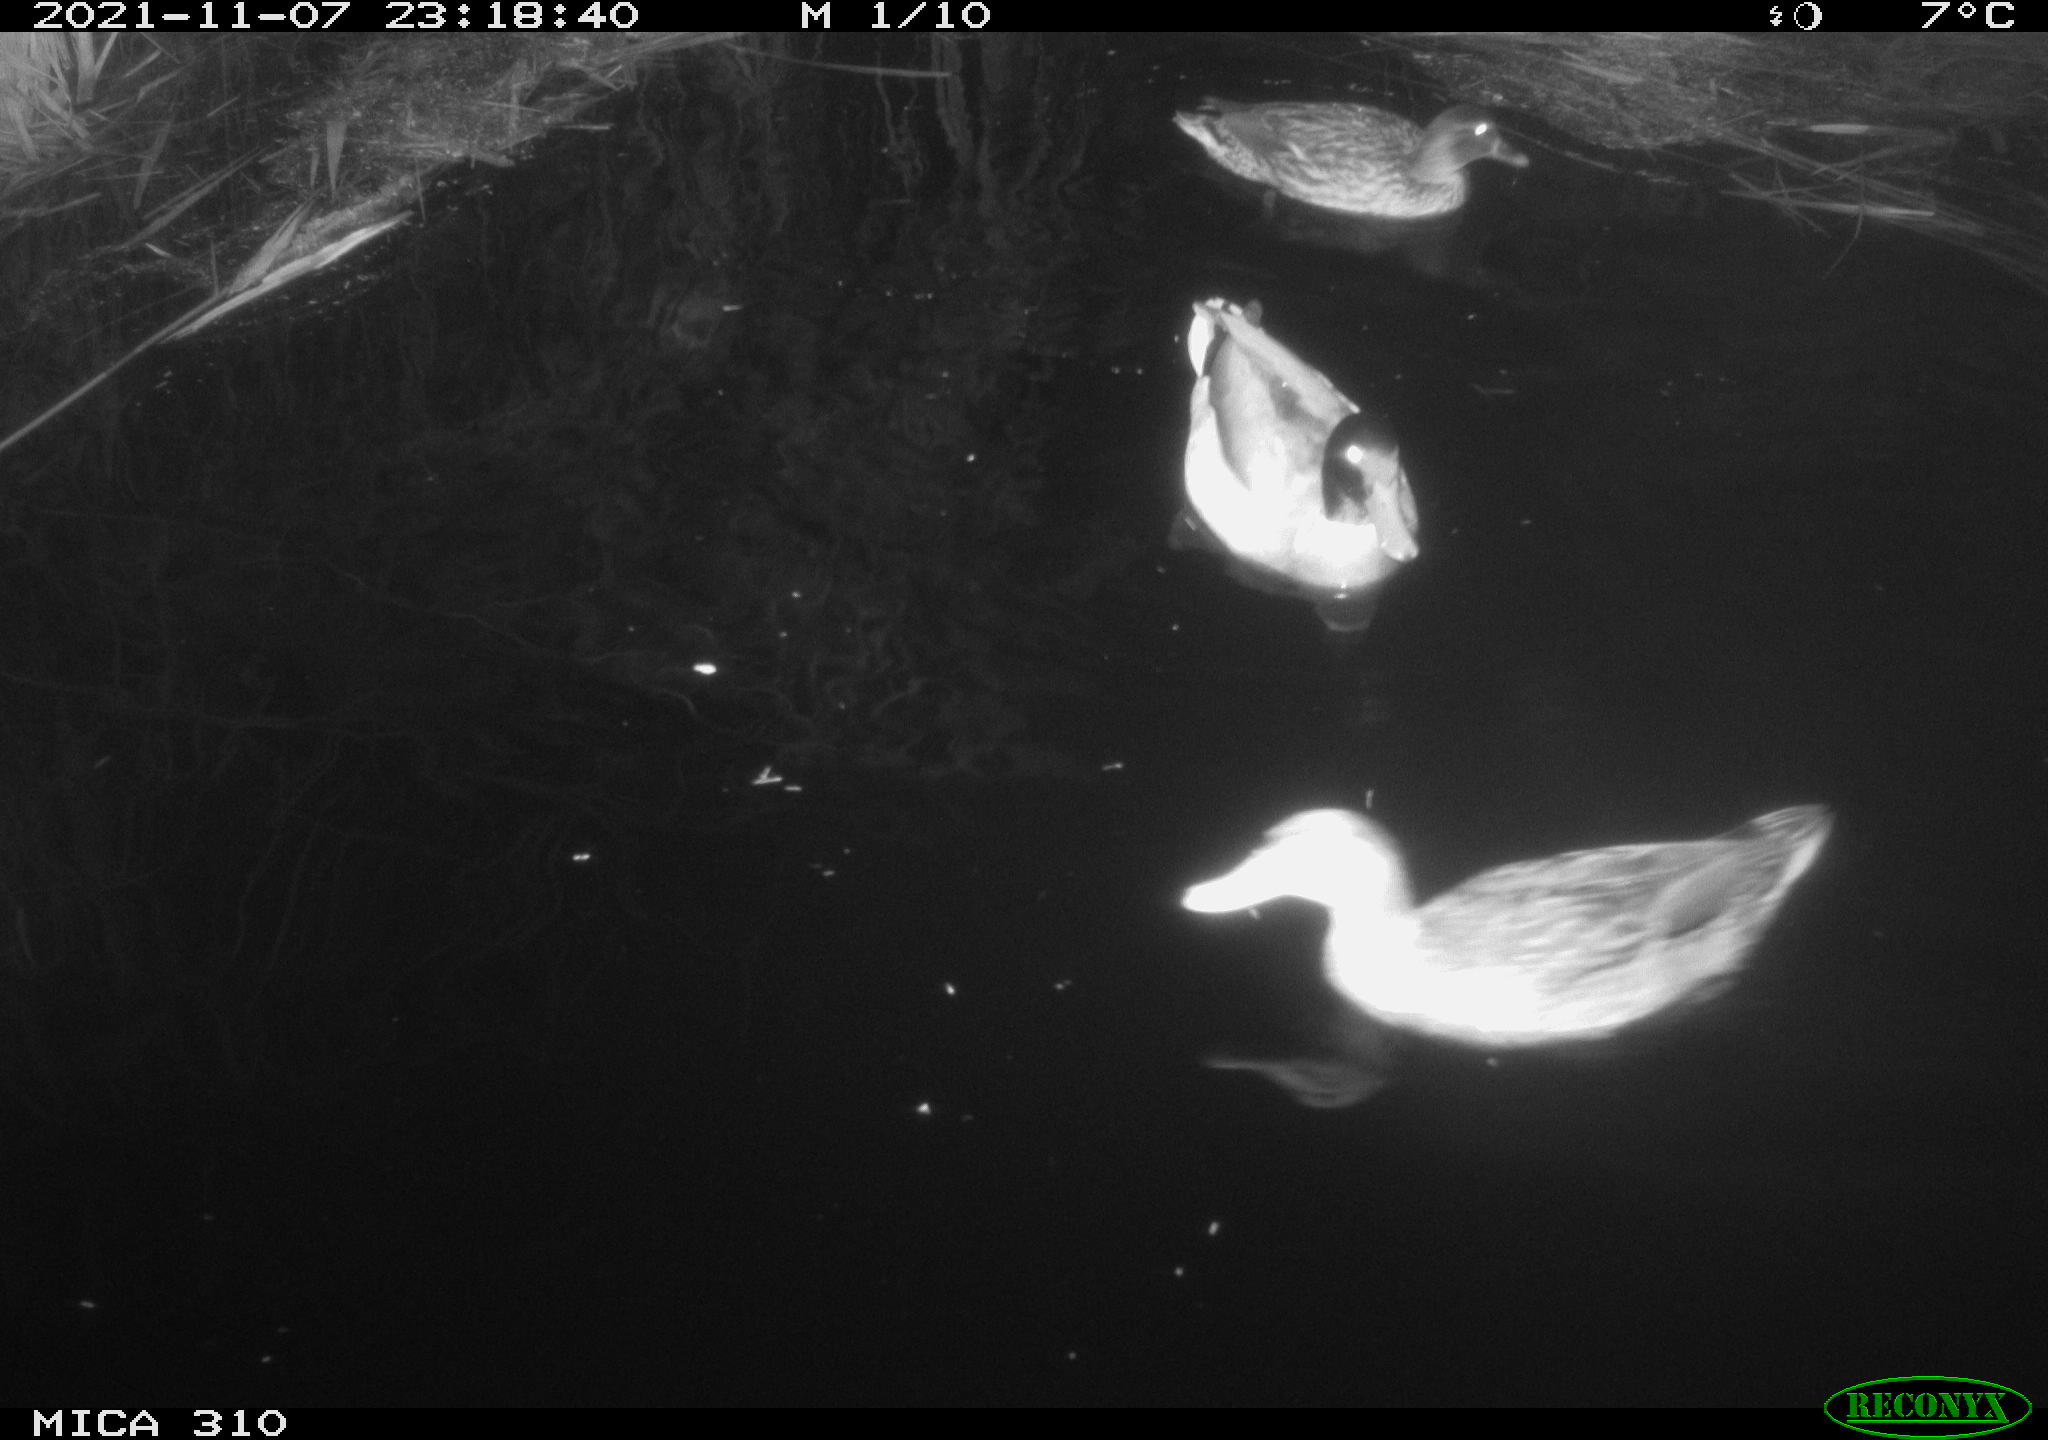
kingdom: Animalia
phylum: Chordata
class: Aves
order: Anseriformes
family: Anatidae
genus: Anas
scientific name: Anas platyrhynchos
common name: Mallard
